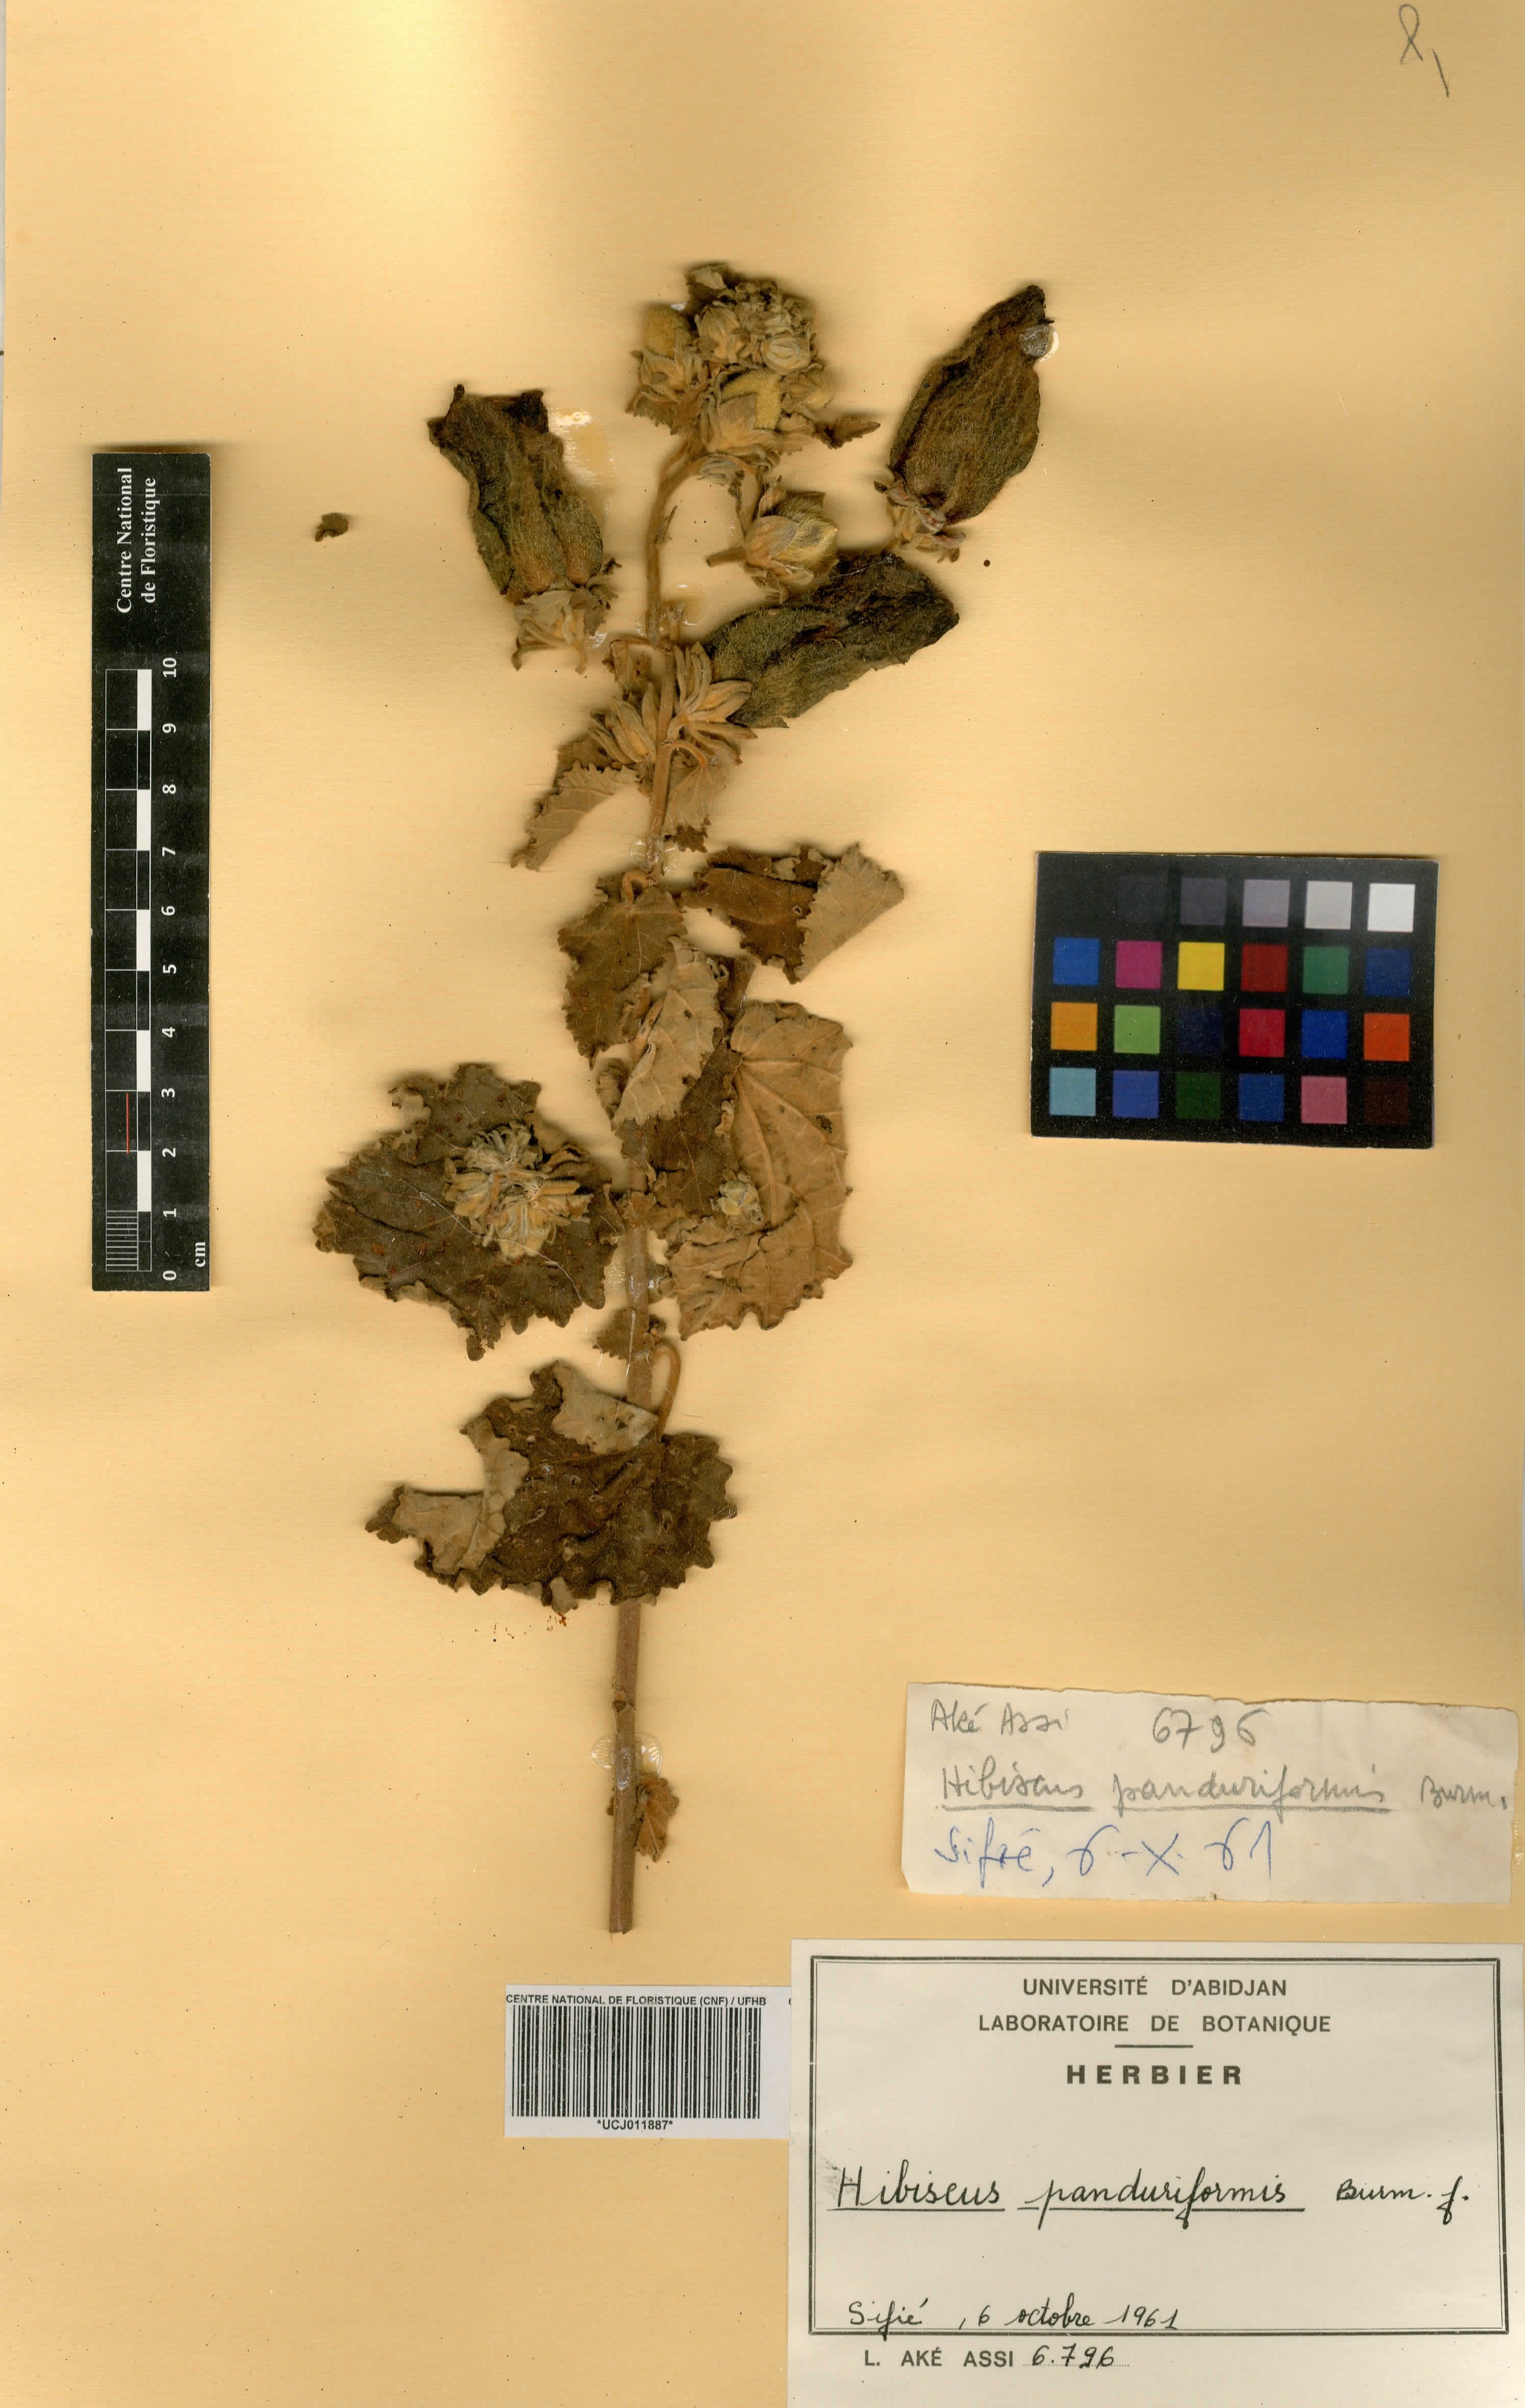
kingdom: Plantae
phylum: Tracheophyta
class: Magnoliopsida
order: Malvales
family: Malvaceae
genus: Hibiscus
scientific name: Hibiscus panduriformis
